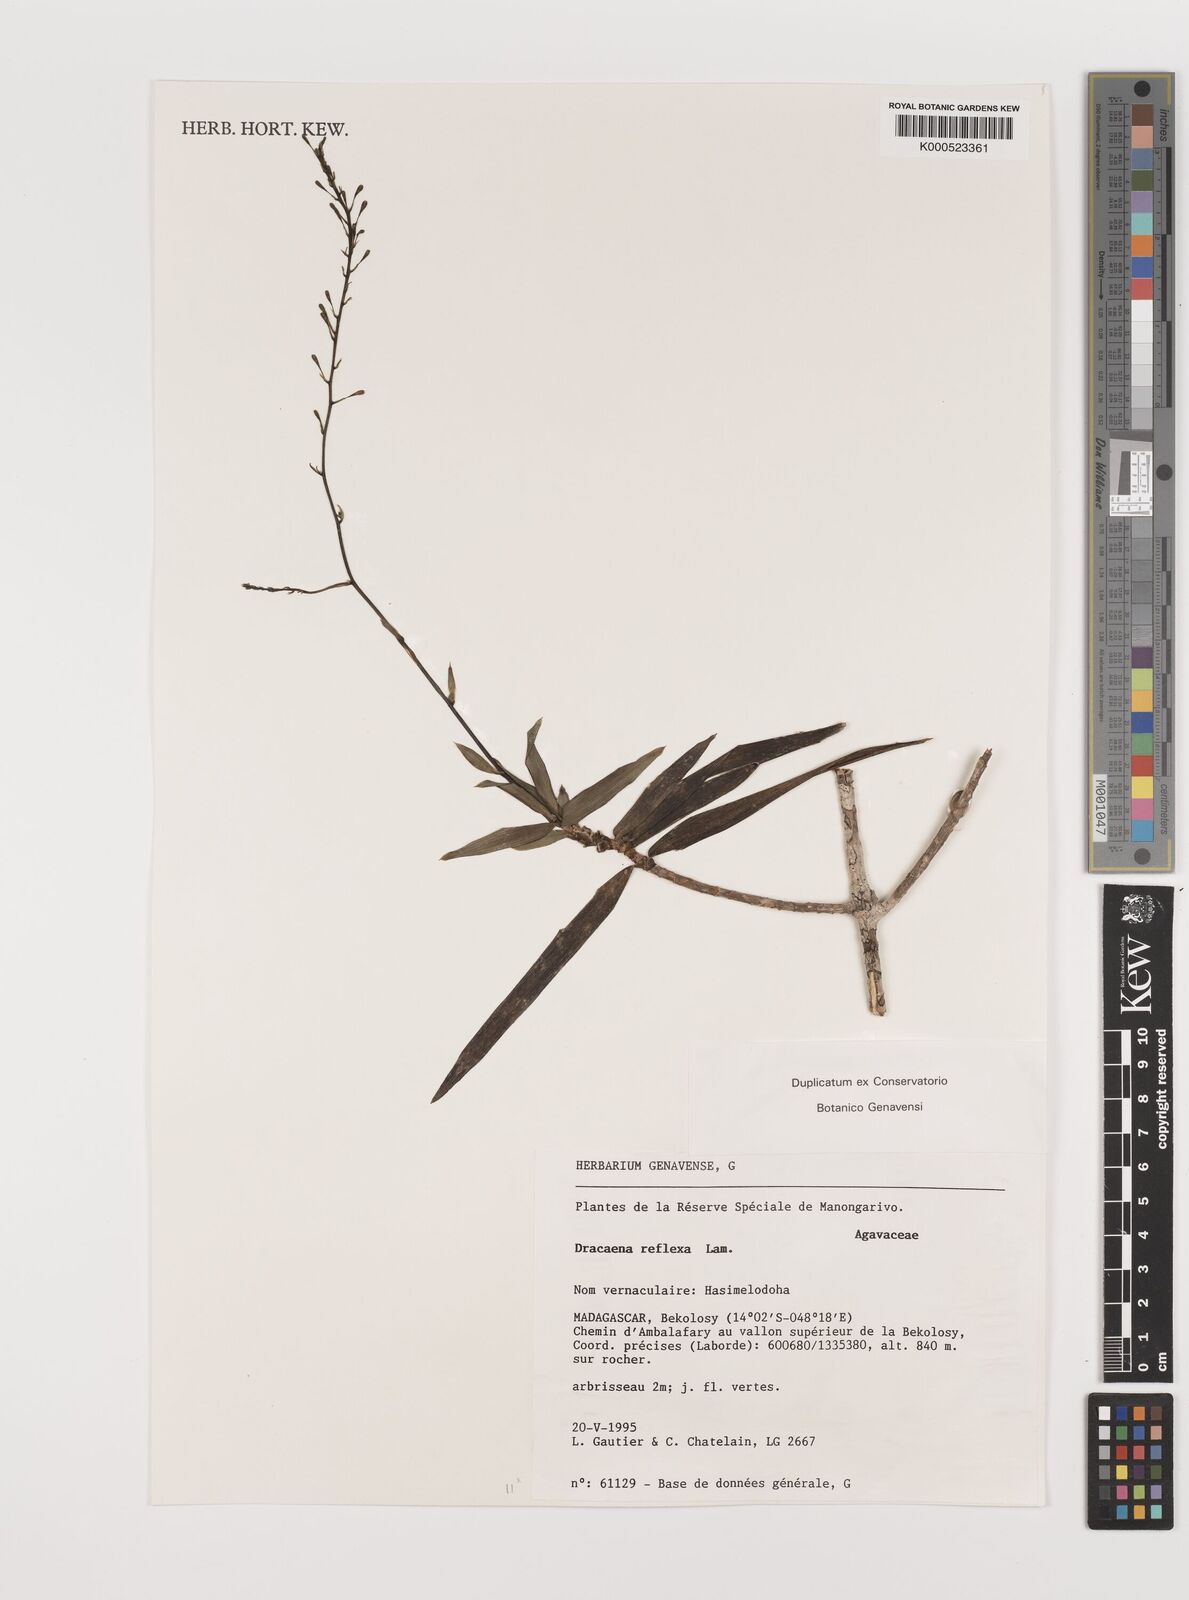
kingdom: Plantae
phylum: Tracheophyta
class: Liliopsida
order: Asparagales
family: Asparagaceae
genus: Dracaena
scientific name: Dracaena reflexa
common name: Song-of-india
